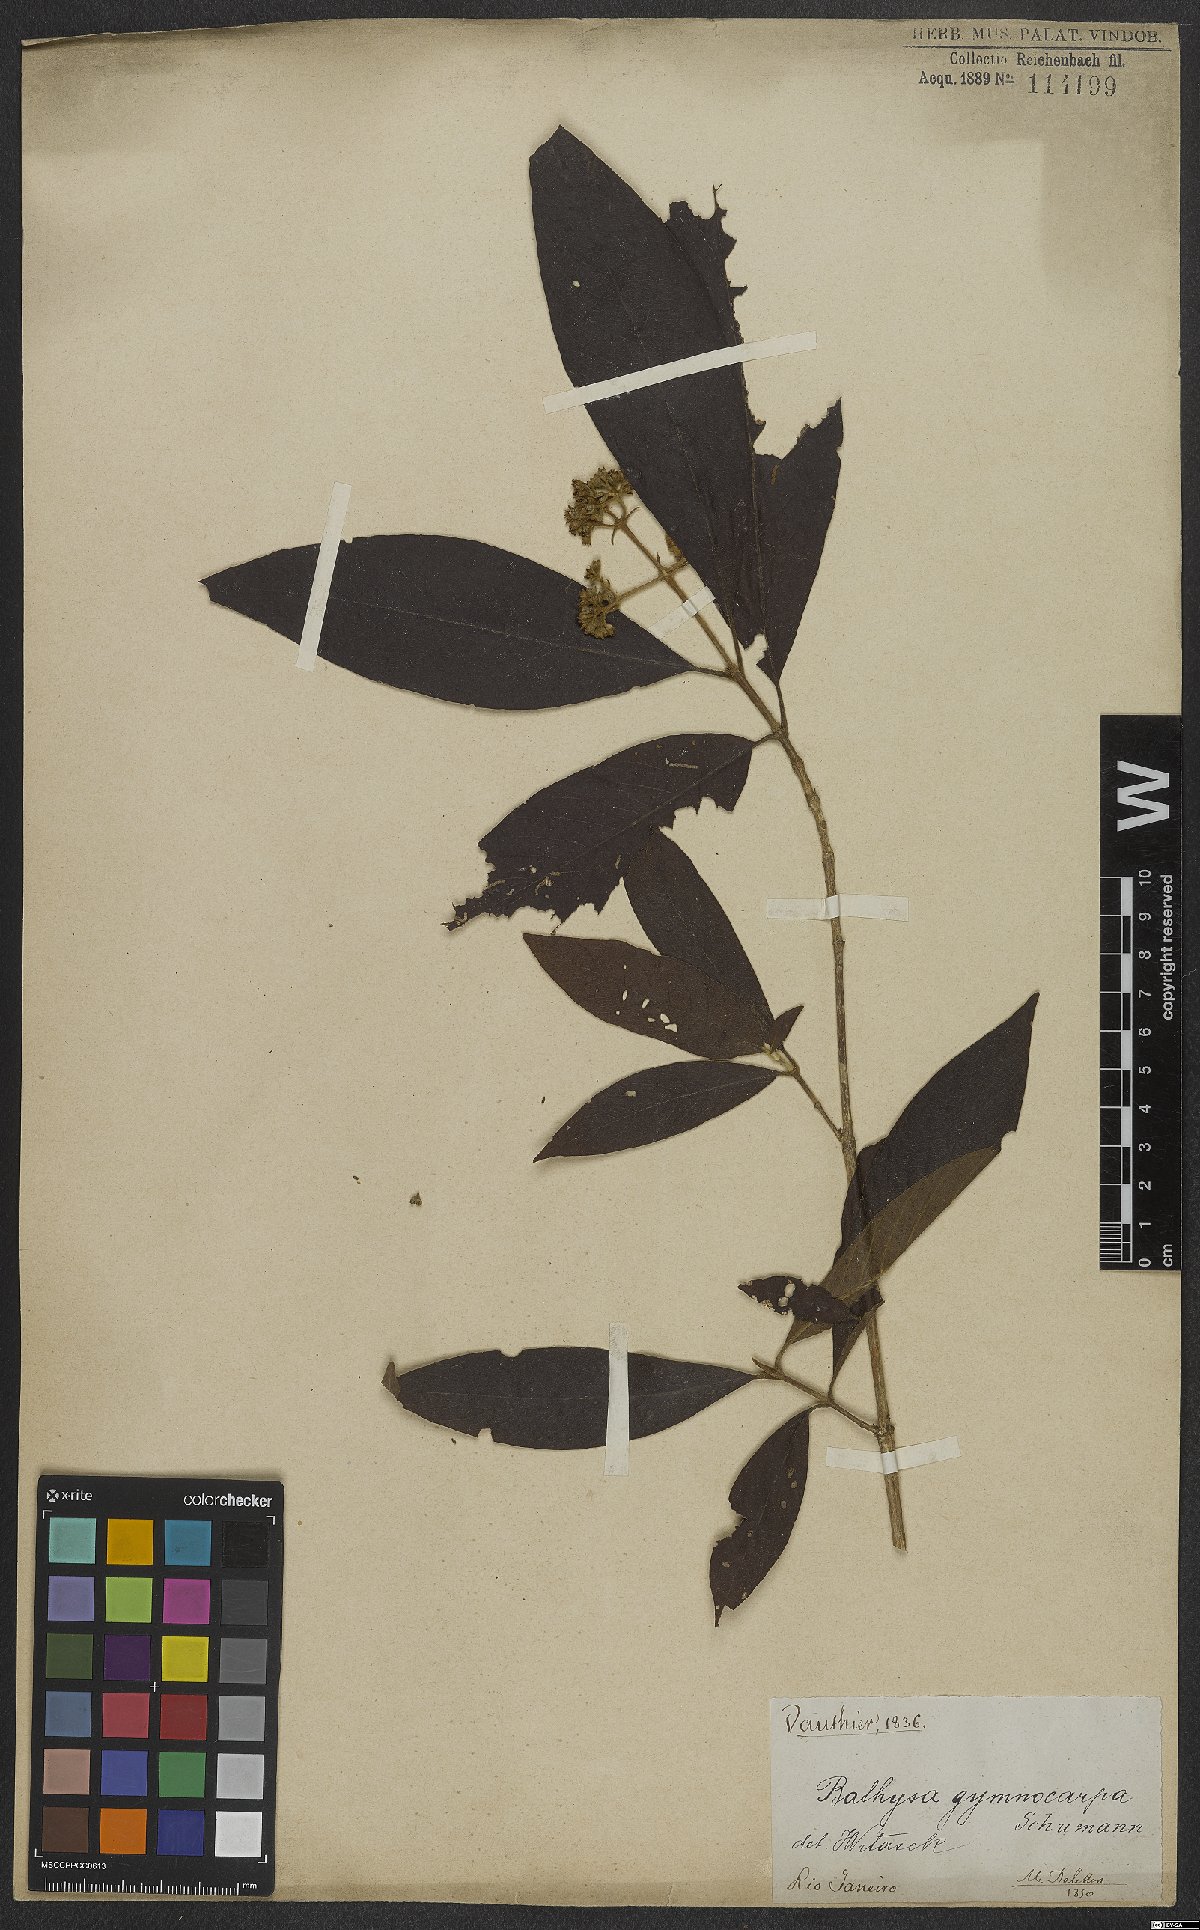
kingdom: Plantae
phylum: Tracheophyta
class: Magnoliopsida
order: Gentianales
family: Rubiaceae
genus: Bathysa
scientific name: Bathysa gymnocarpa
